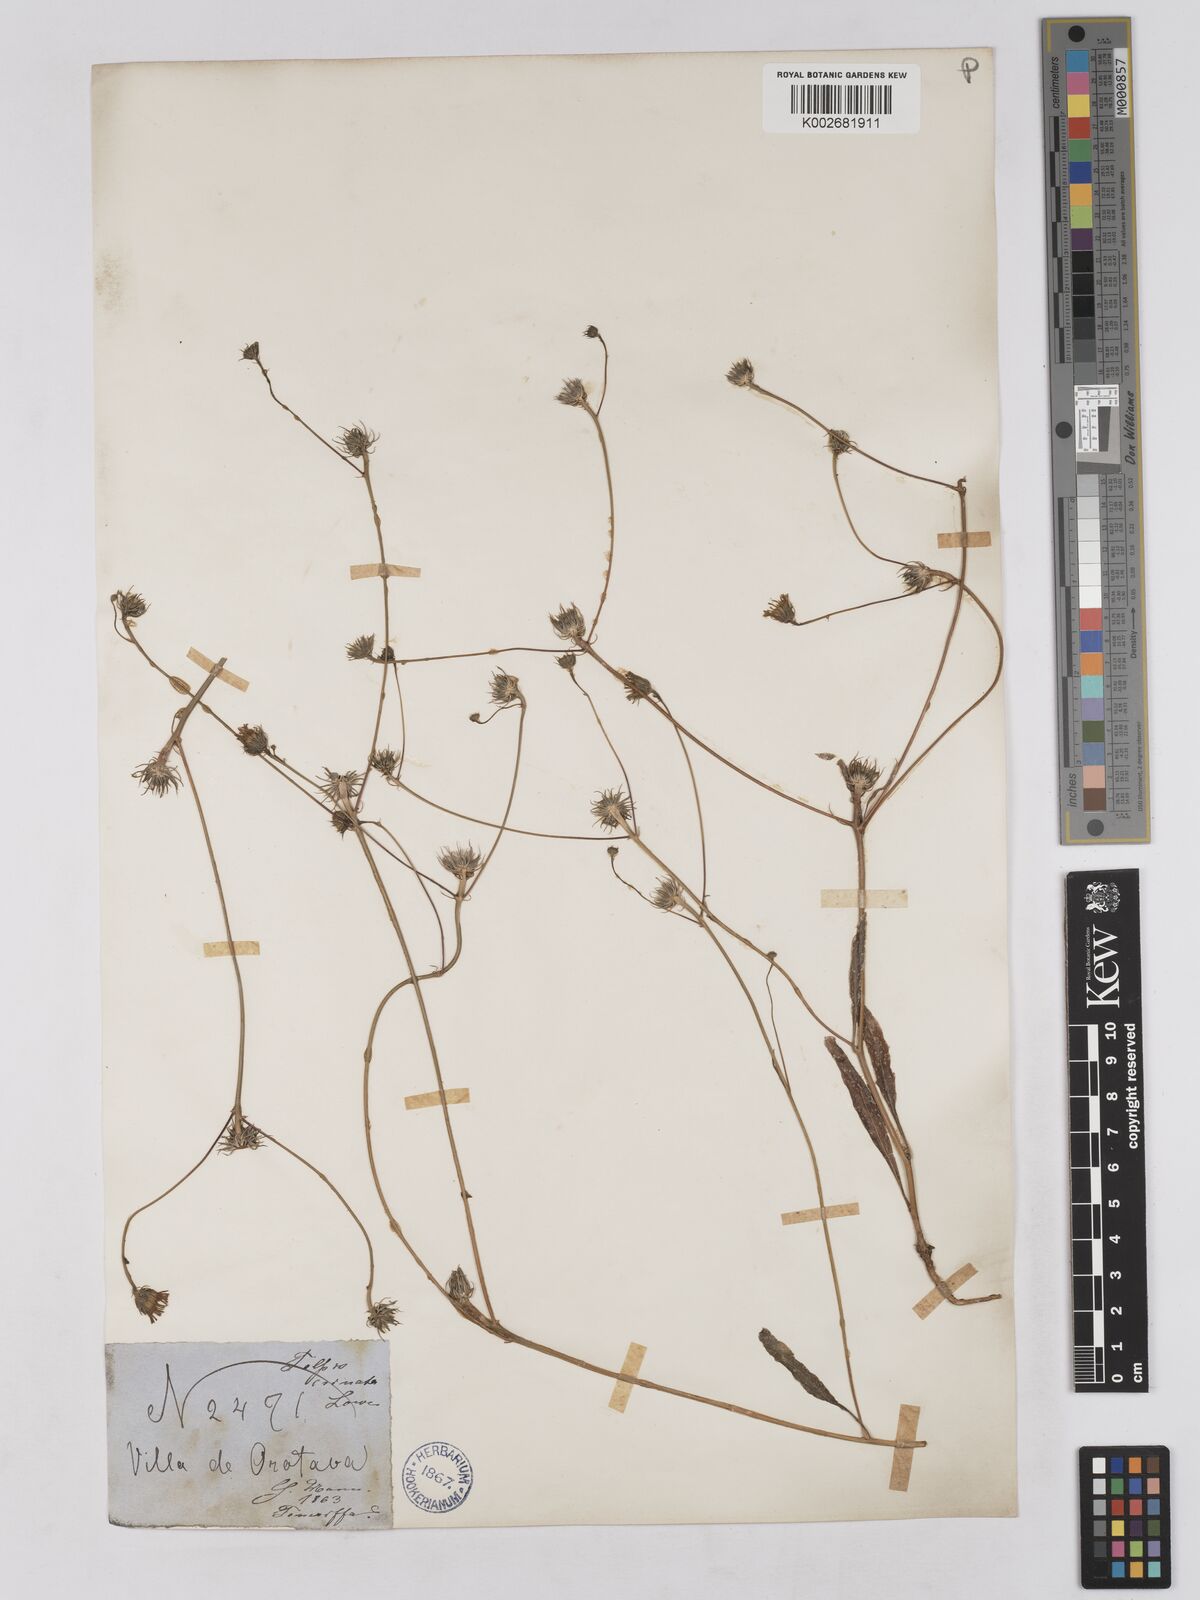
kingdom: Plantae
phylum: Tracheophyta
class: Magnoliopsida
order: Asterales
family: Asteraceae
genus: Tolpis
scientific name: Tolpis barbata
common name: Yellow hawkweed
